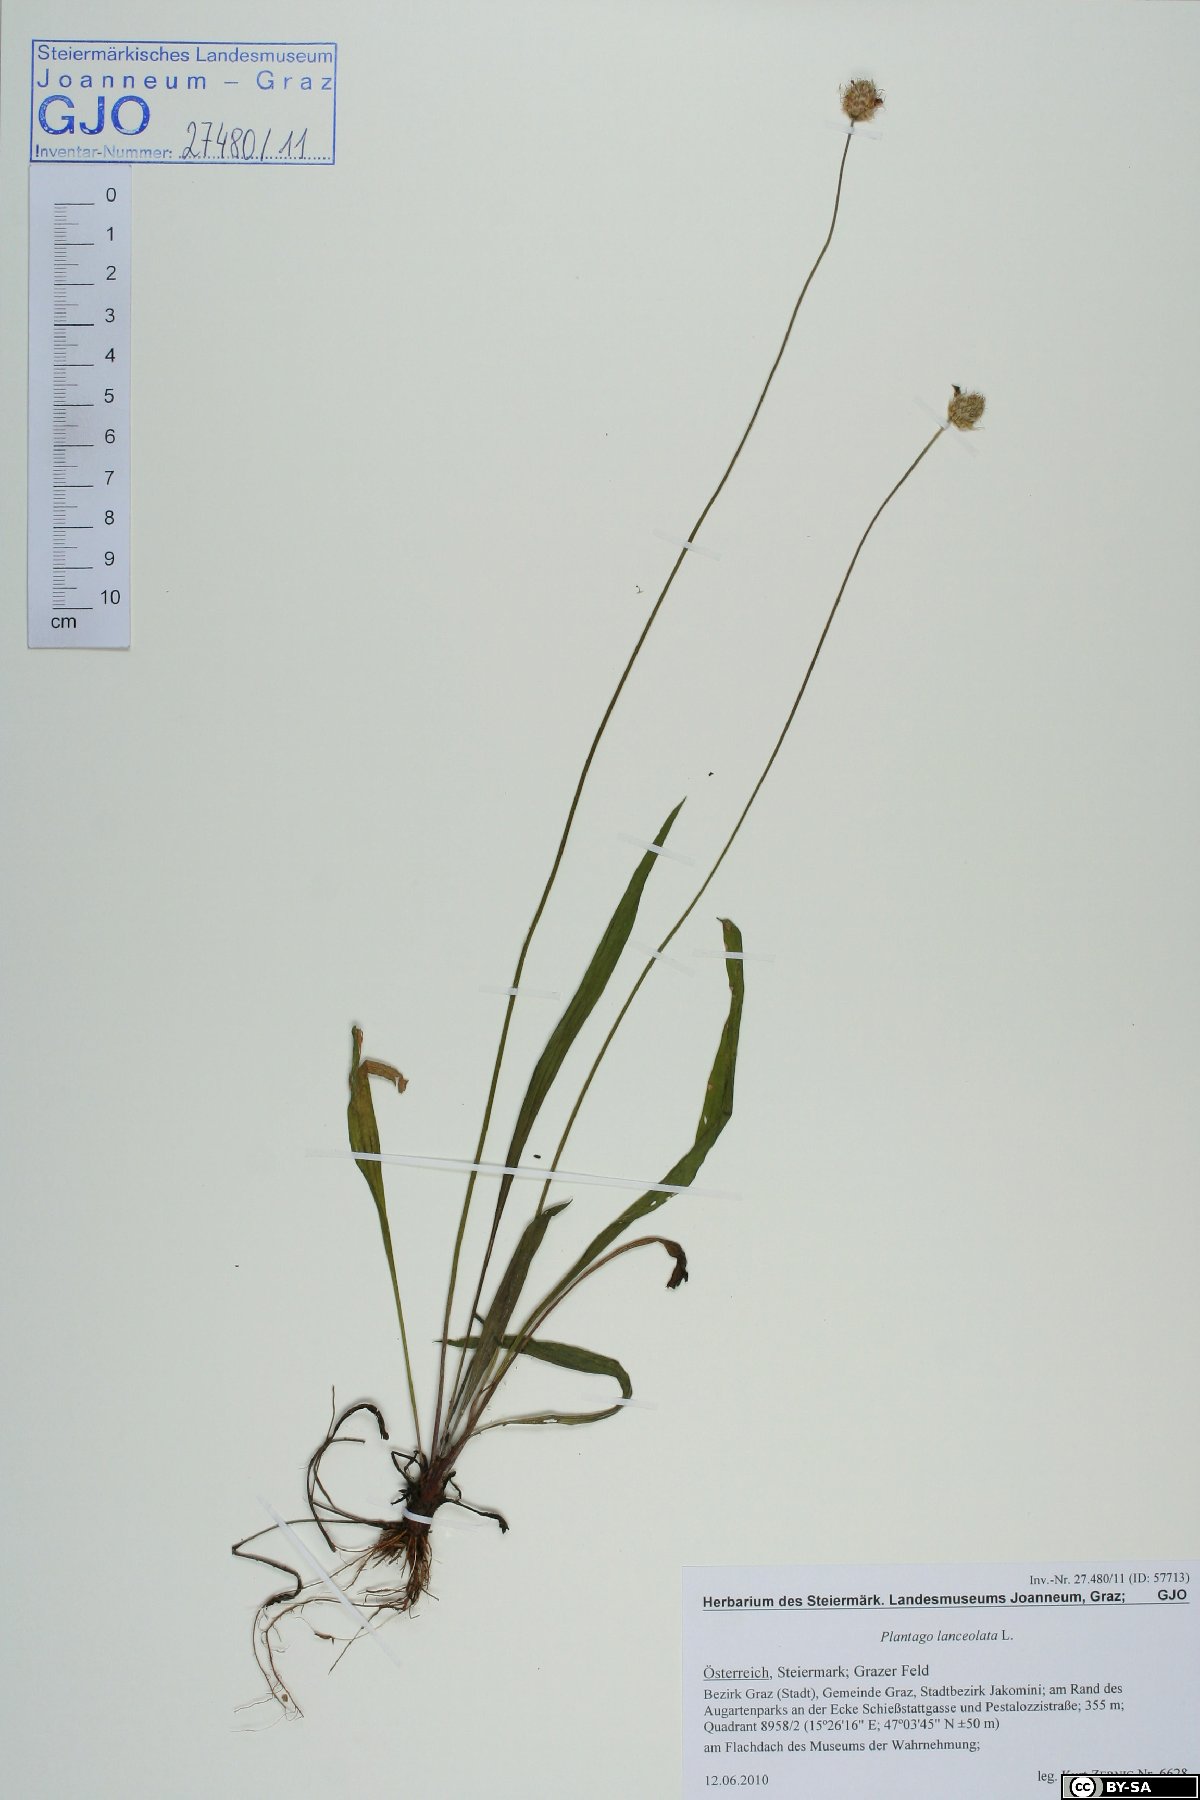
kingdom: Plantae
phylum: Tracheophyta
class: Magnoliopsida
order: Lamiales
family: Plantaginaceae
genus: Plantago
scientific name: Plantago lanceolata
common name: Ribwort plantain
